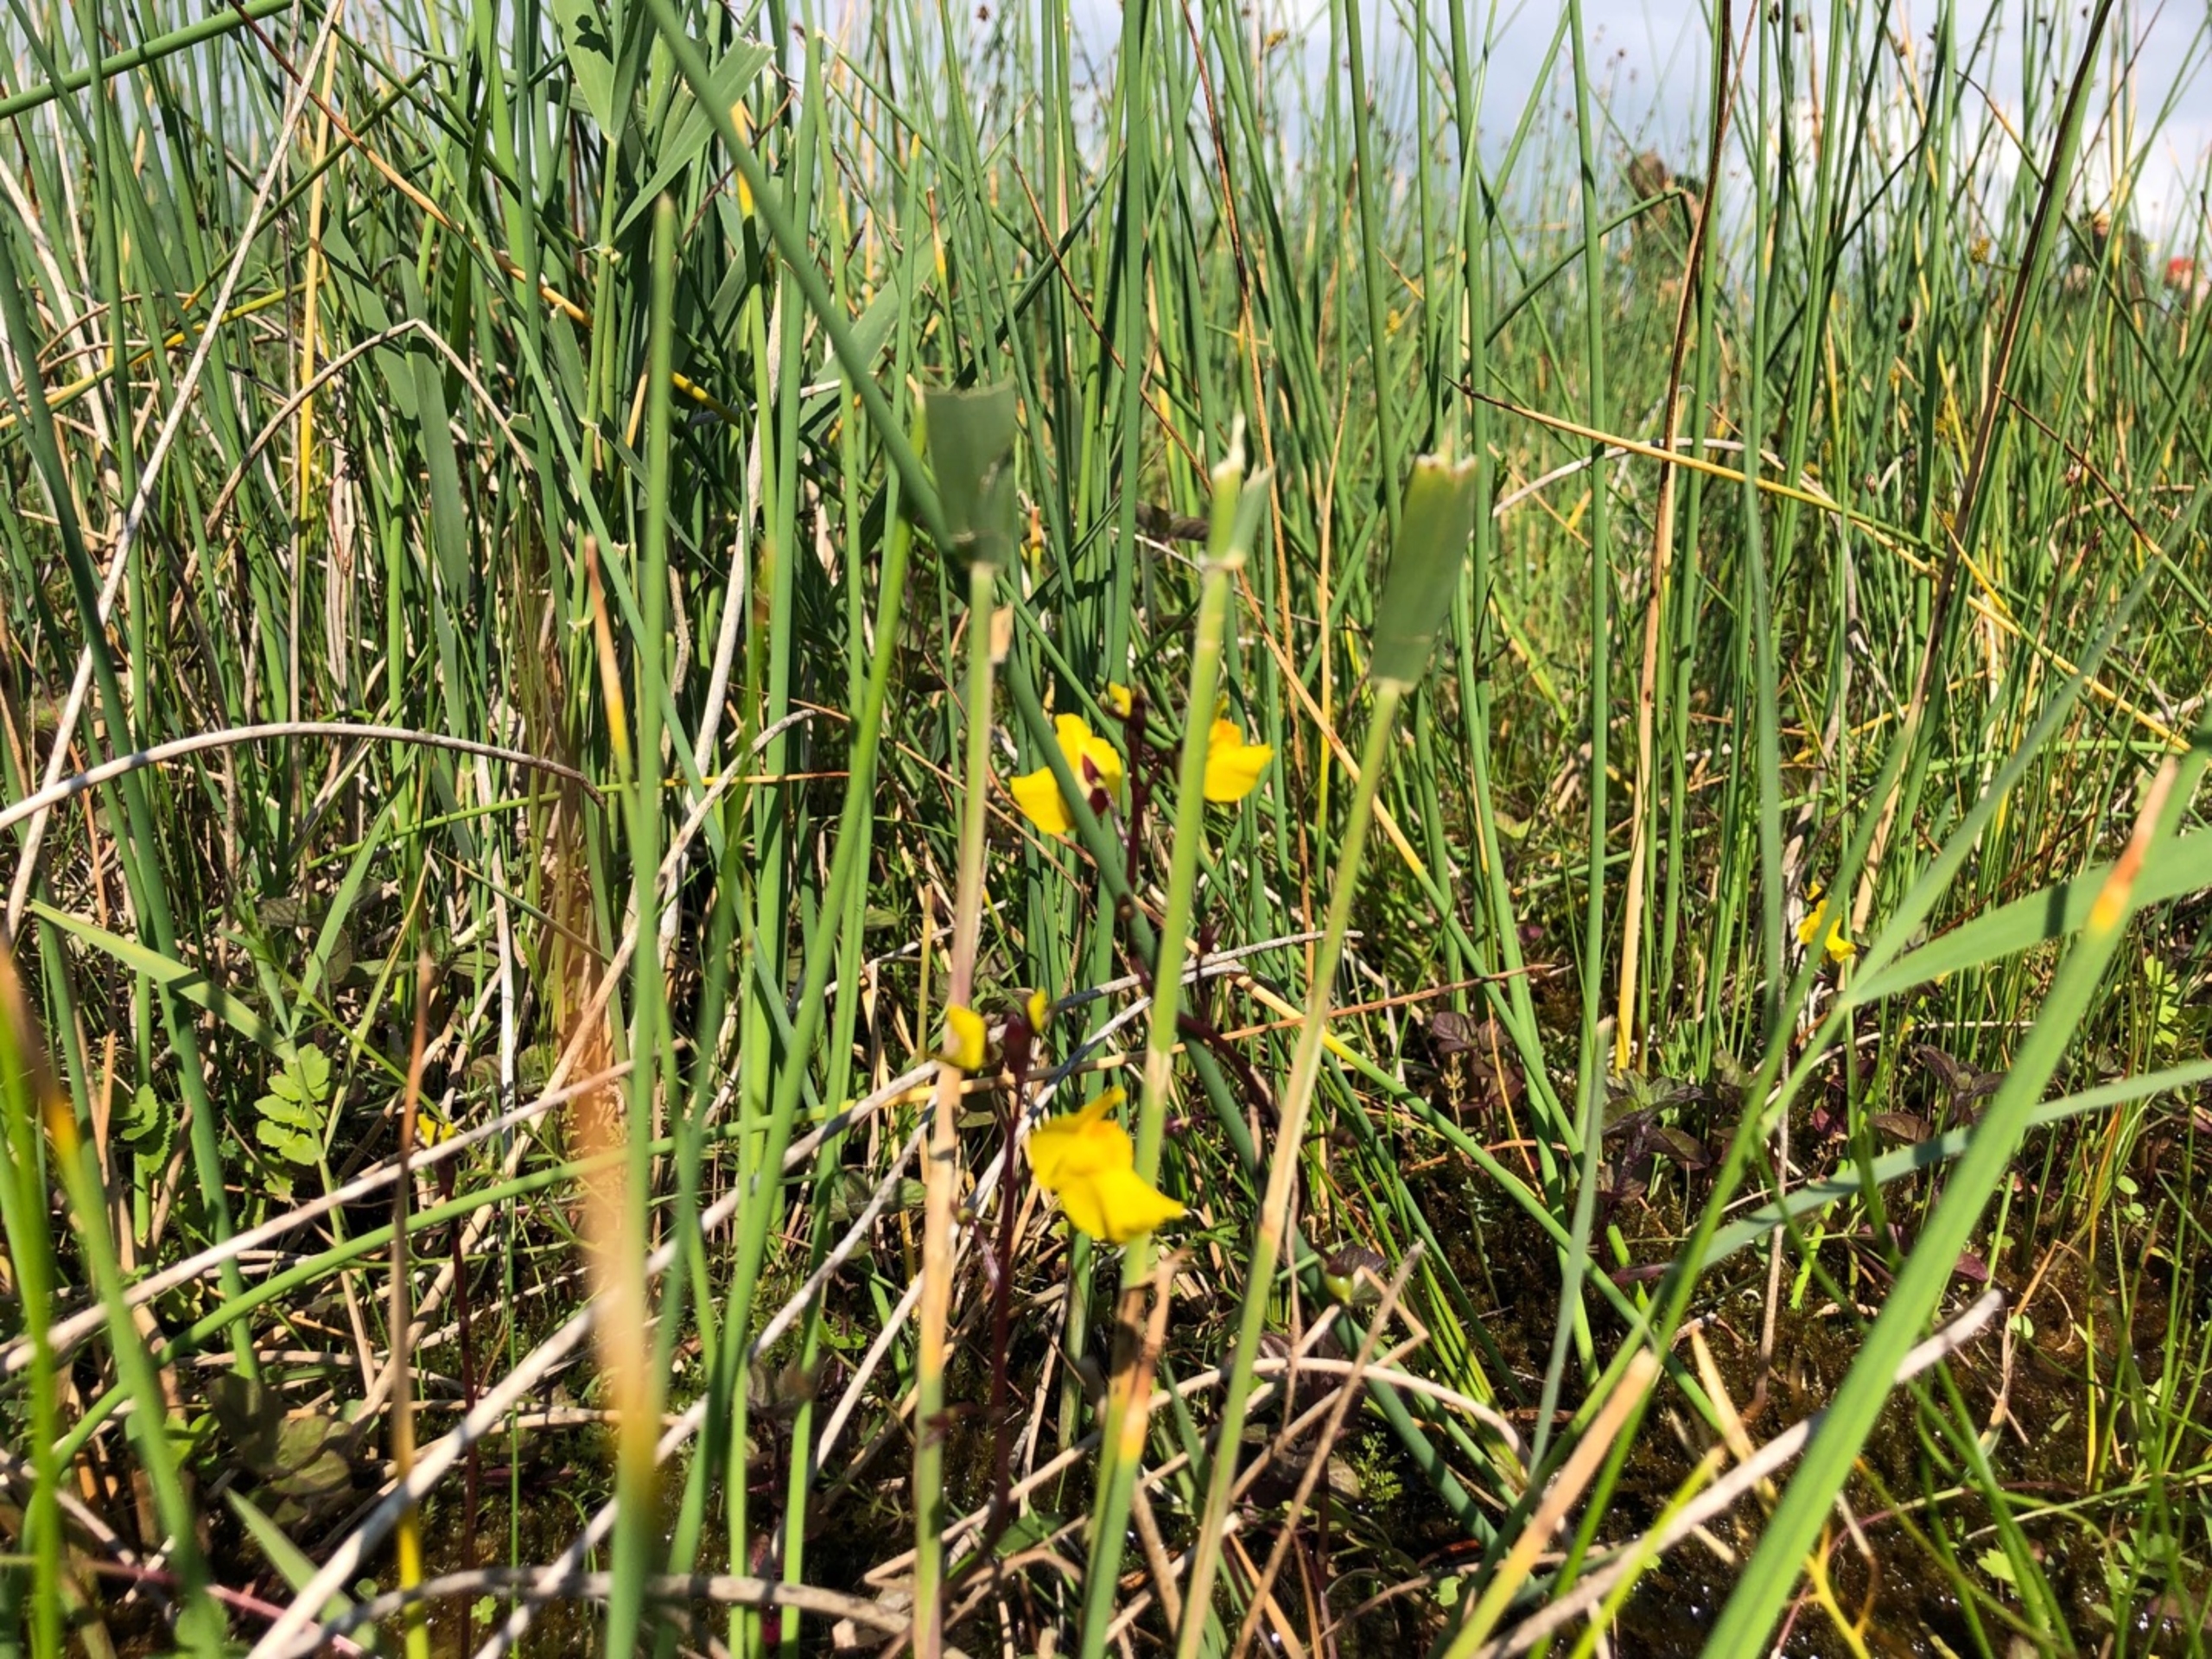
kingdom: Plantae
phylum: Tracheophyta
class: Magnoliopsida
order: Lamiales
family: Lentibulariaceae
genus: Utricularia
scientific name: Utricularia vulgaris
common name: Almindelig blærerod
